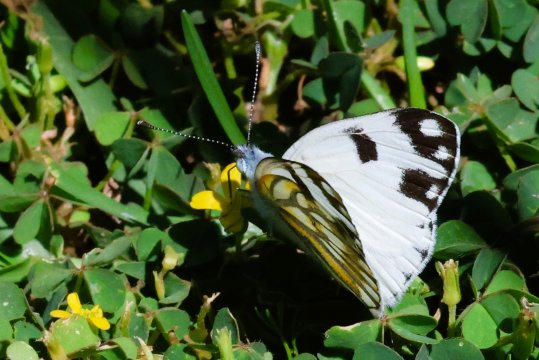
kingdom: Animalia
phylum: Arthropoda
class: Insecta
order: Lepidoptera
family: Pieridae
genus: Pontia
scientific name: Pontia helice
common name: Meadow White
